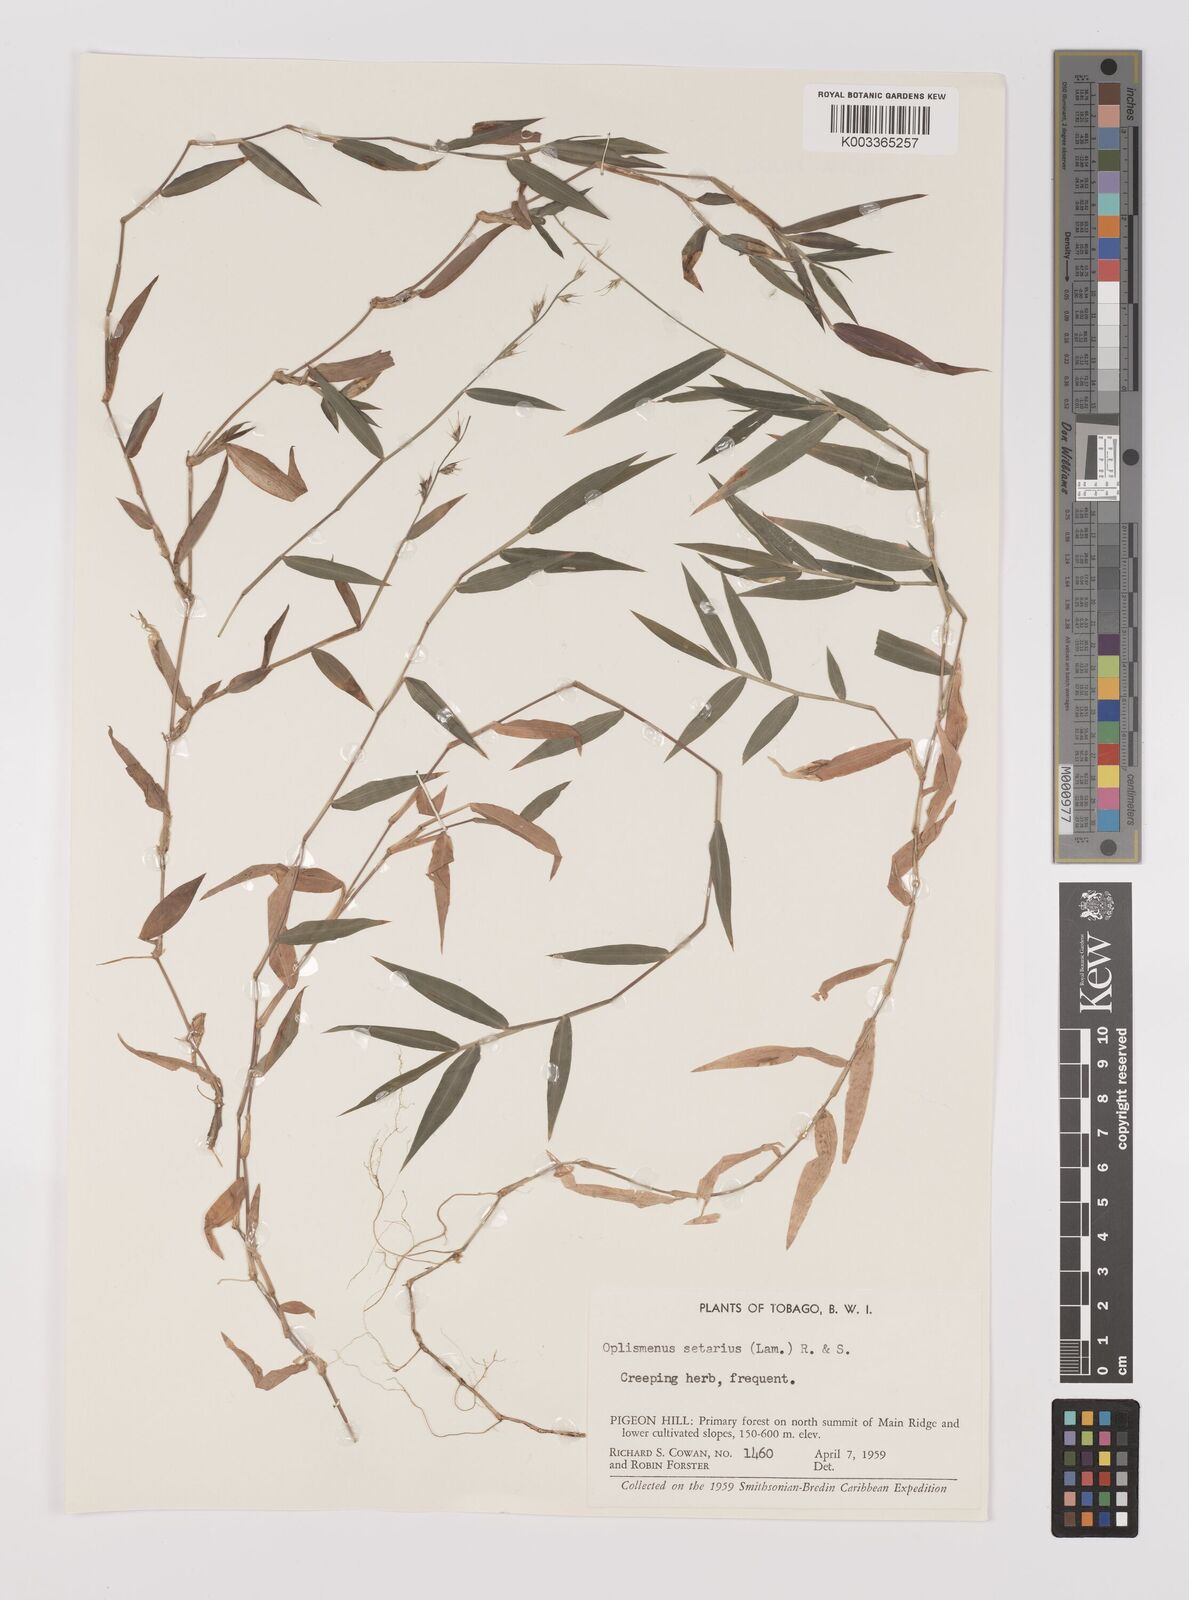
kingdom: Plantae
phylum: Tracheophyta
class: Liliopsida
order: Poales
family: Poaceae
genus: Oplismenus
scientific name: Oplismenus hirtellus
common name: Basketgrass
